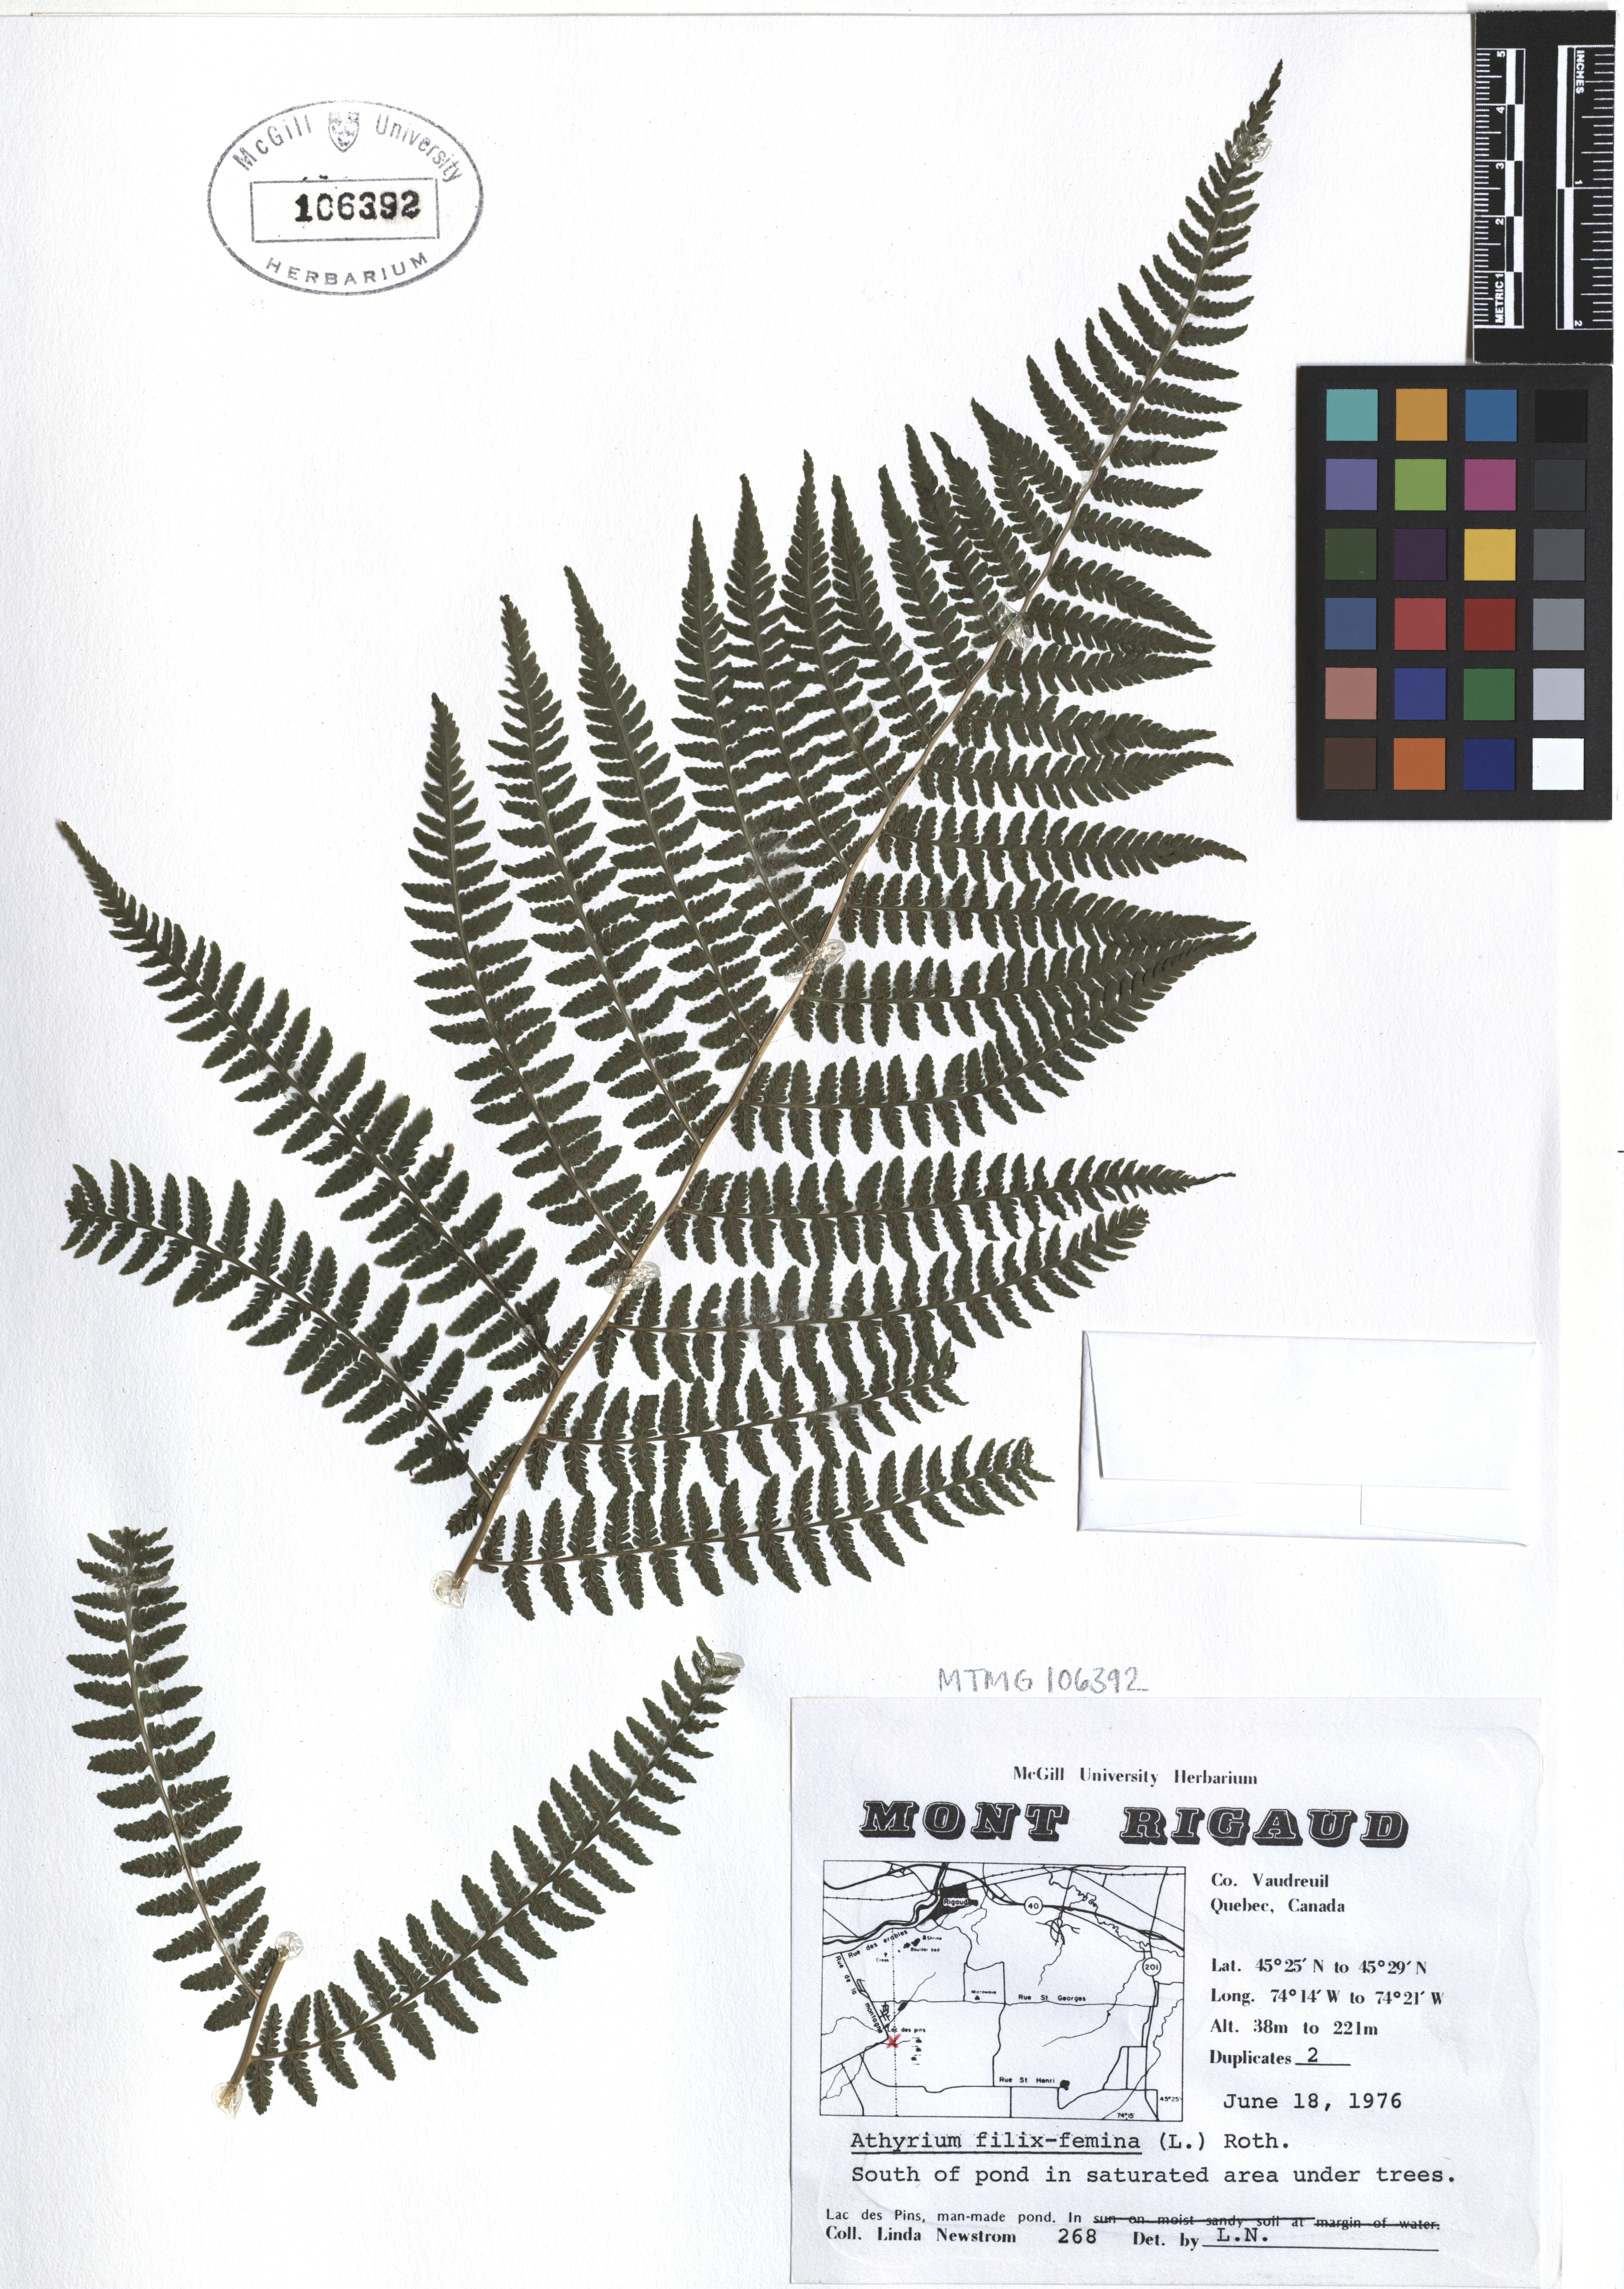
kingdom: Plantae
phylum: Tracheophyta
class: Polypodiopsida
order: Polypodiales
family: Athyriaceae
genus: Athyrium
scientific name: Athyrium filix-femina
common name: Lady fern
